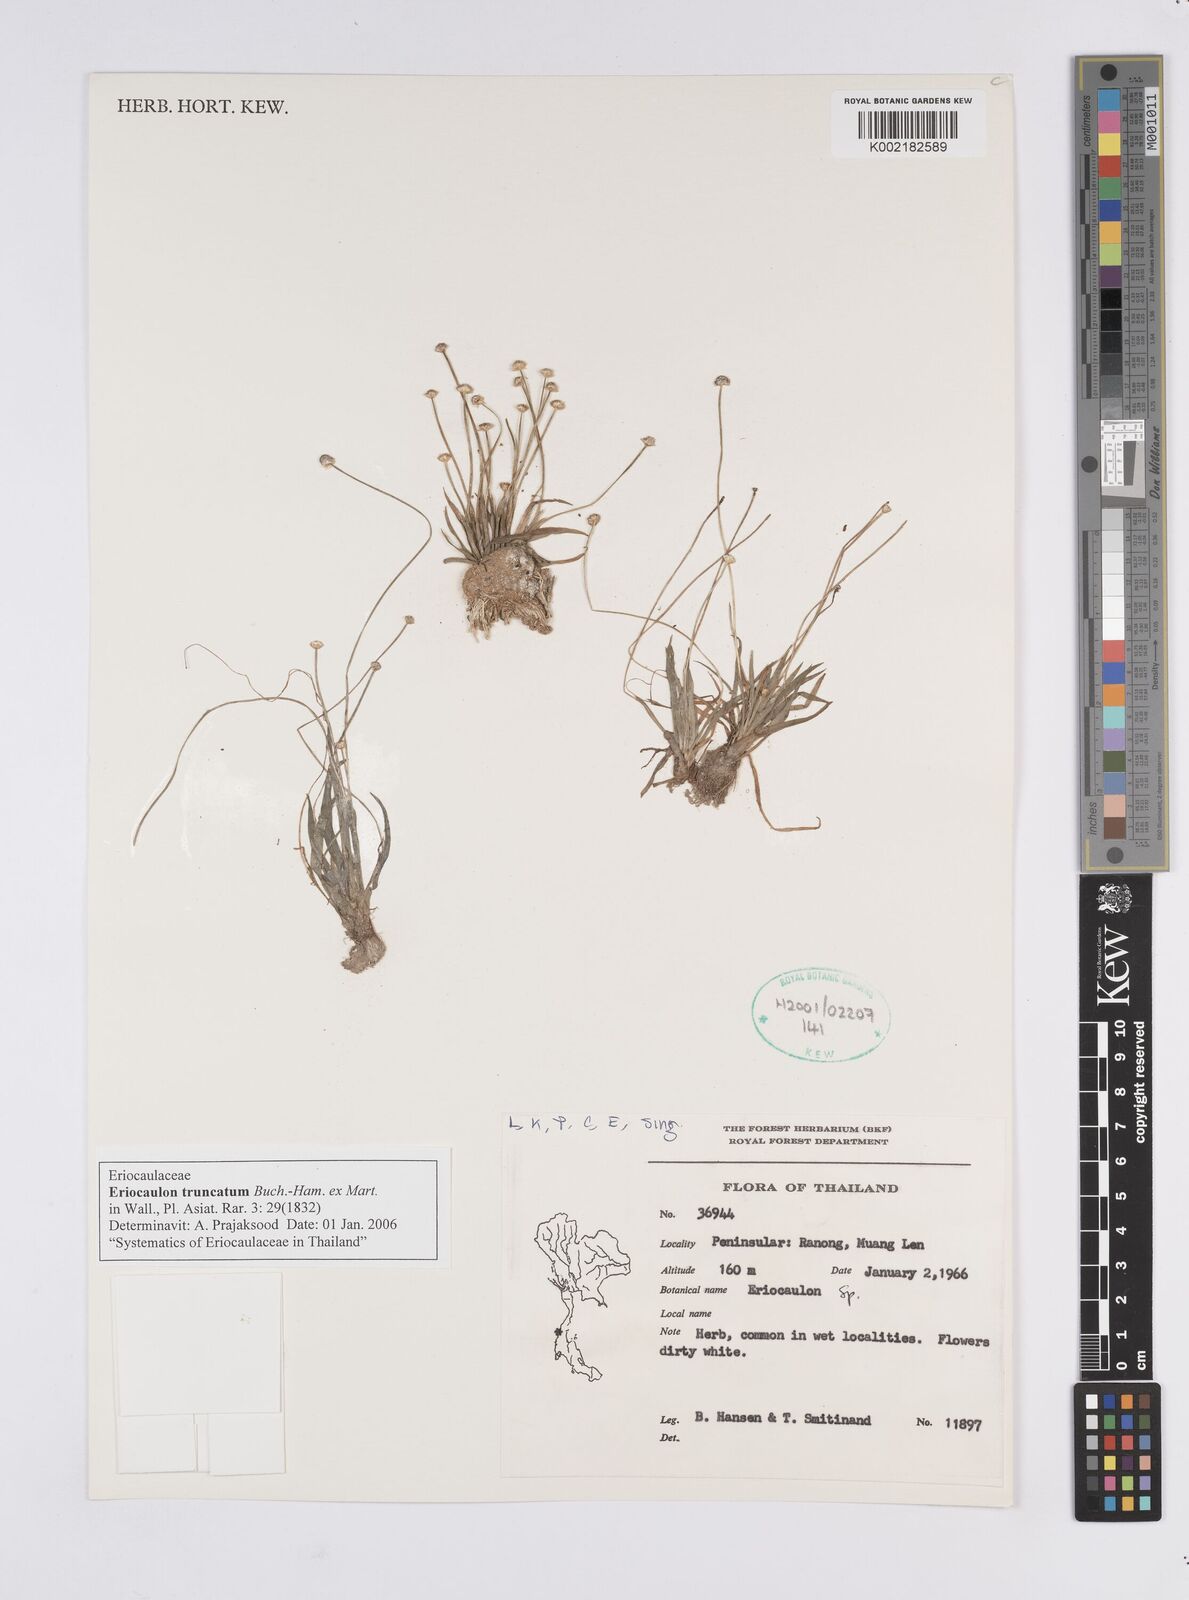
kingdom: Plantae
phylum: Tracheophyta
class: Liliopsida
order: Poales
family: Eriocaulaceae
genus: Eriocaulon
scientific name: Eriocaulon truncatum
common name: Short pipe-wort
